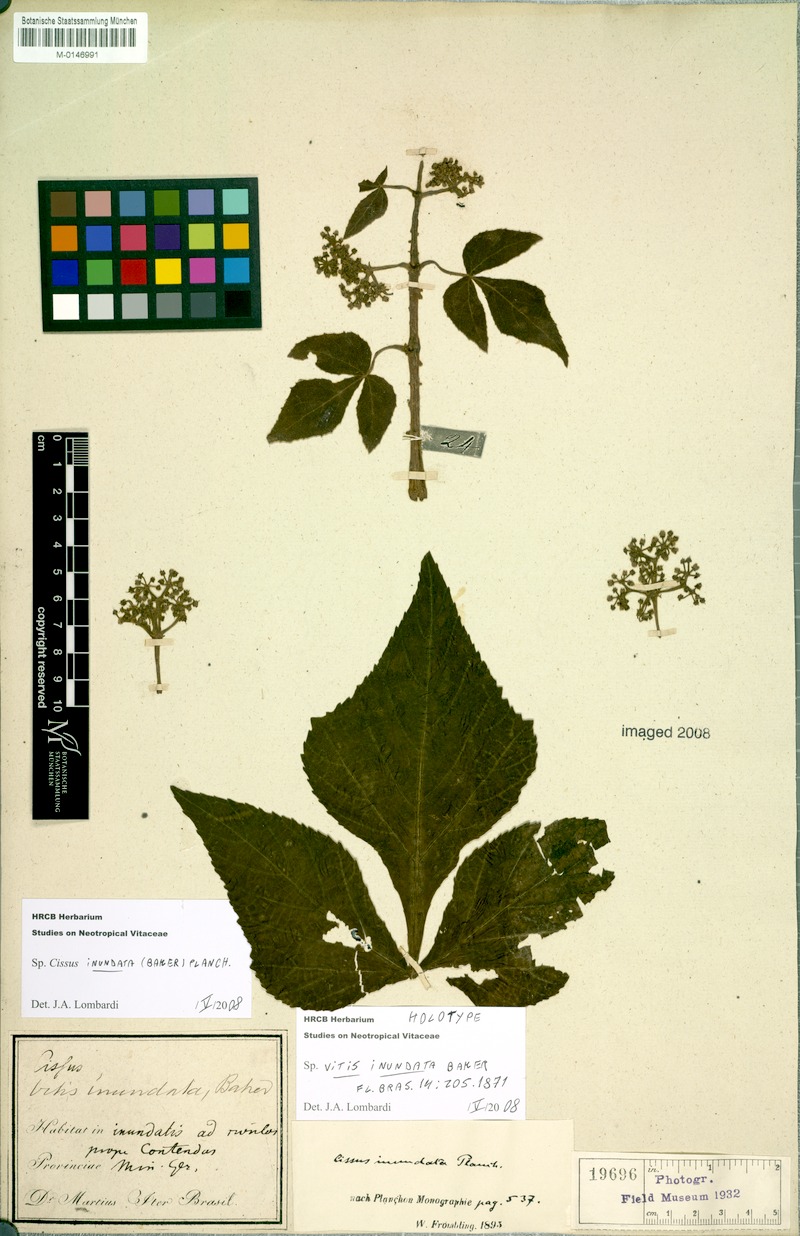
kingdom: Plantae
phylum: Tracheophyta
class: Magnoliopsida
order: Vitales
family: Vitaceae
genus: Cissus
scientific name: Cissus inundata
